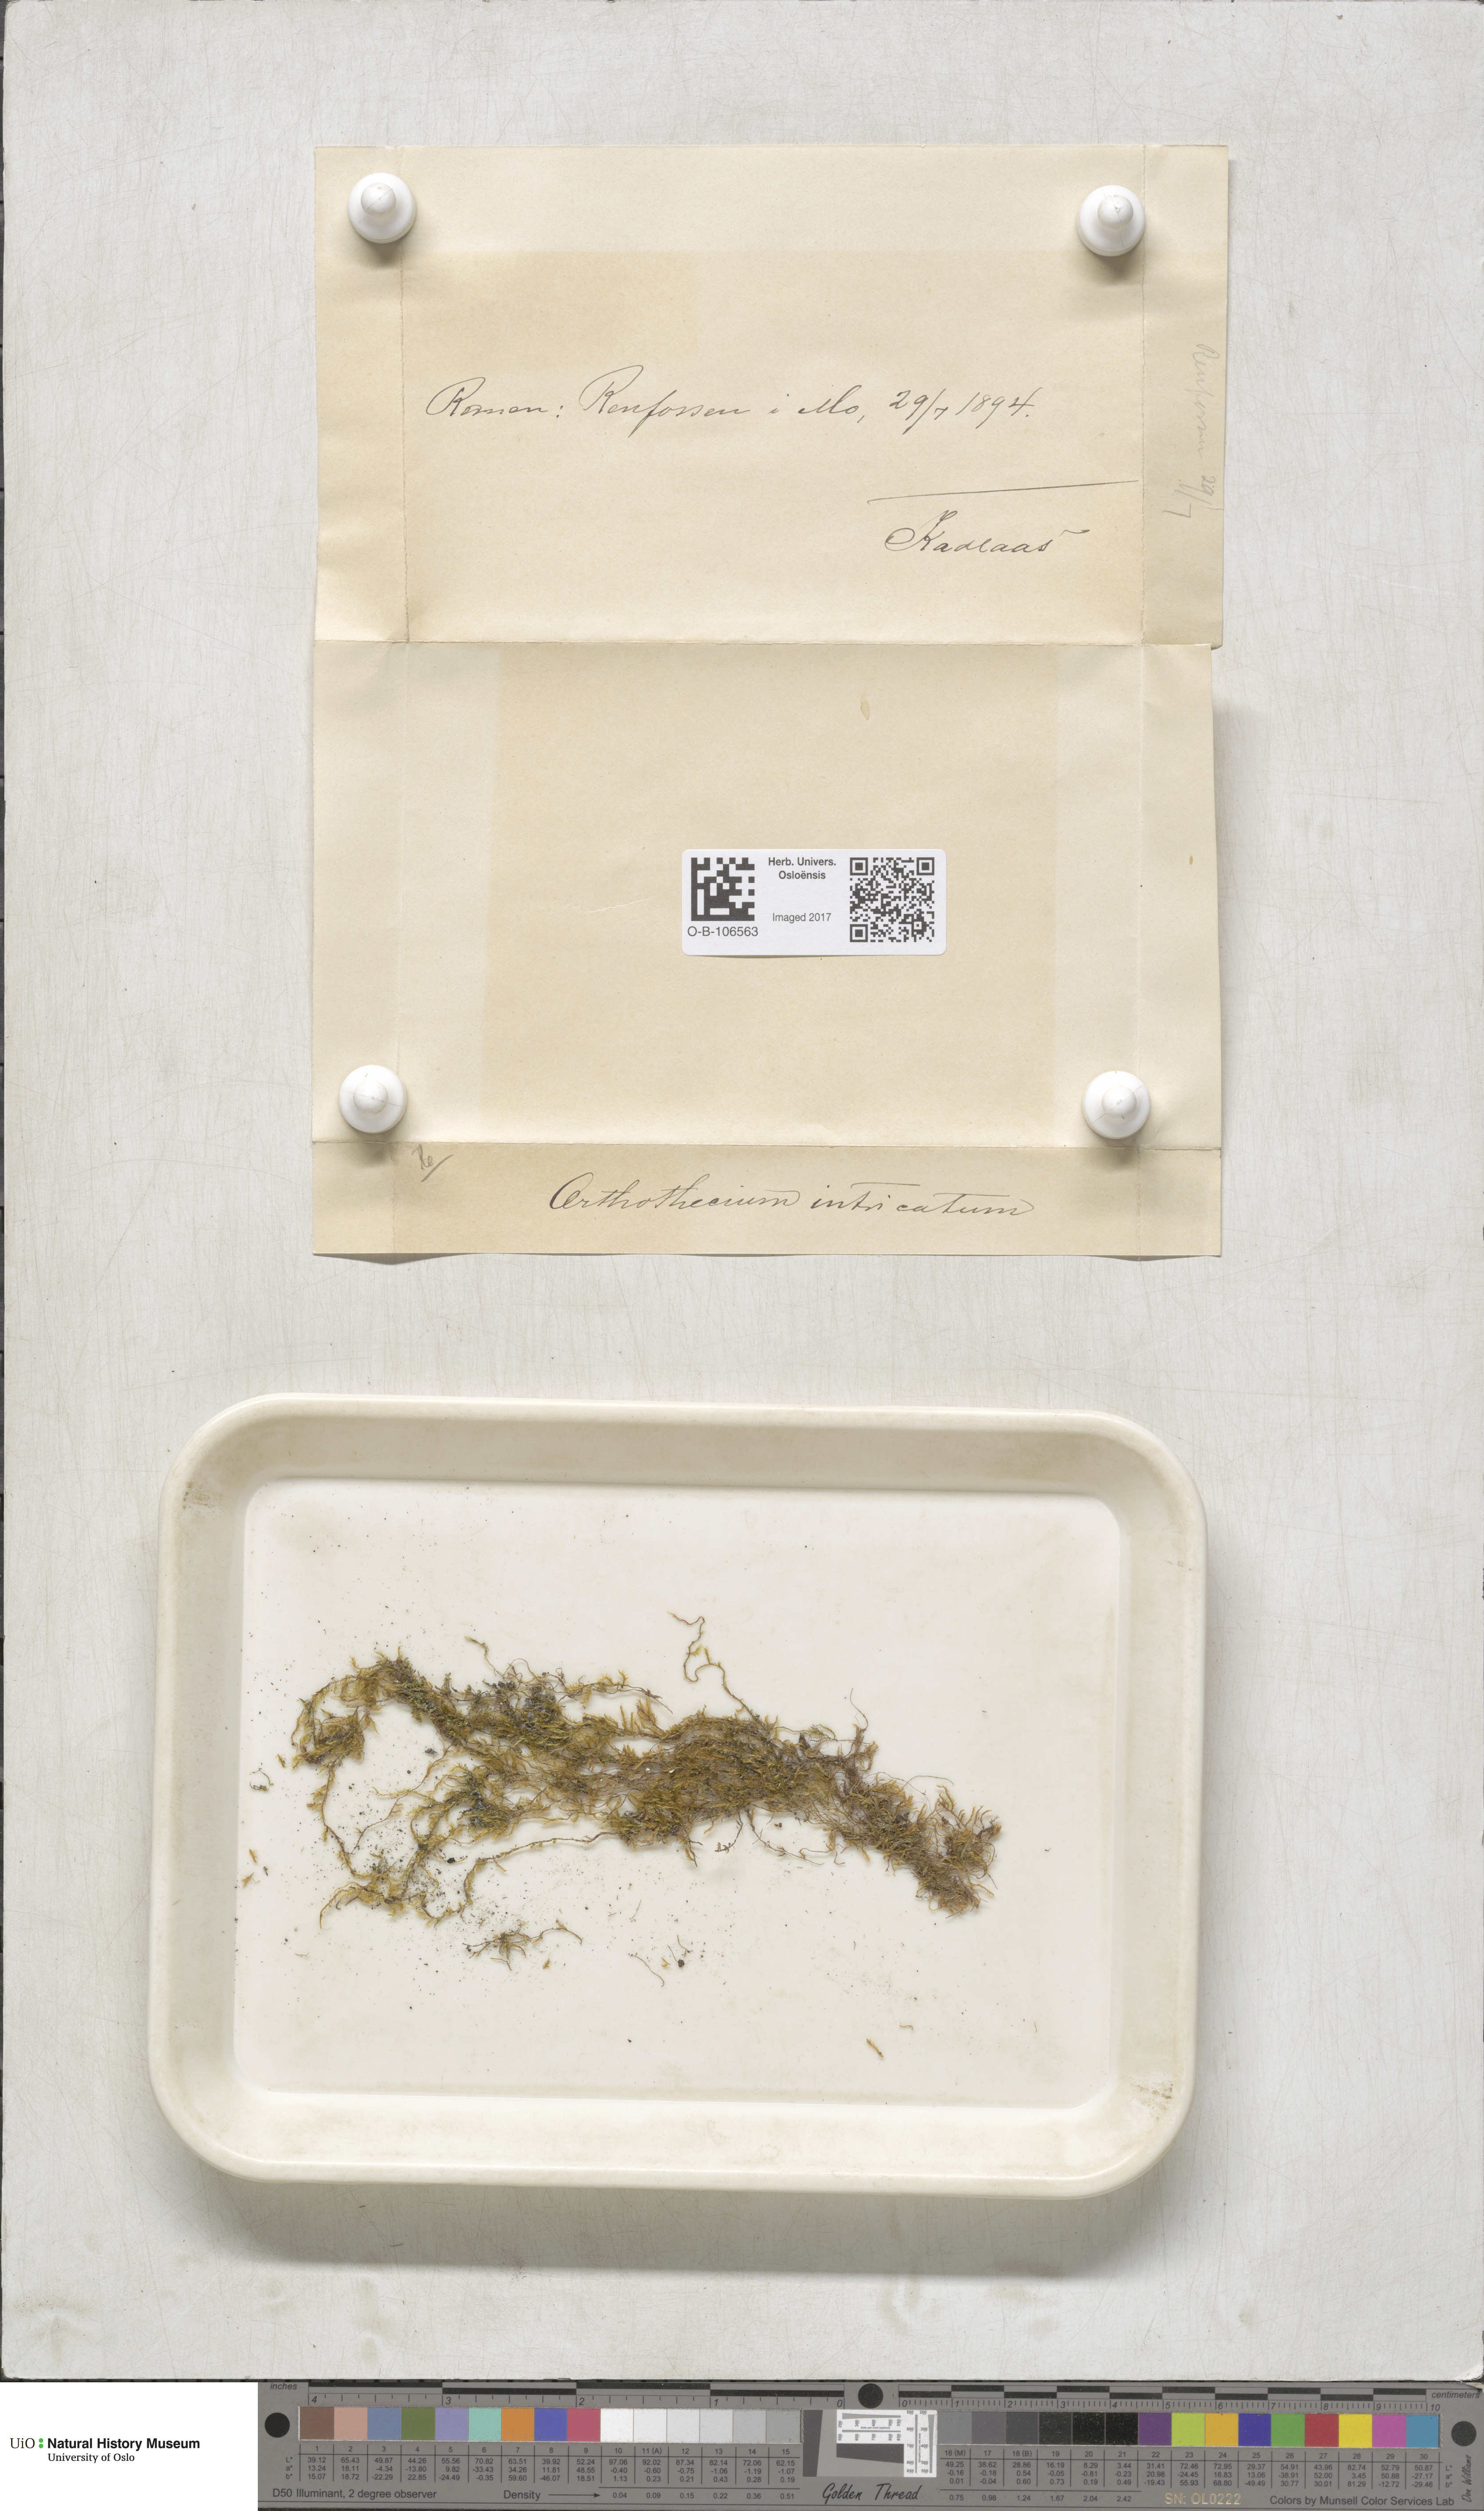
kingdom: Plantae
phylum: Bryophyta
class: Bryopsida
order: Hypnales
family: Plagiotheciaceae
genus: Orthothecium
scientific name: Orthothecium intricatum
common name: Fine-leaved erect-capsule moss
